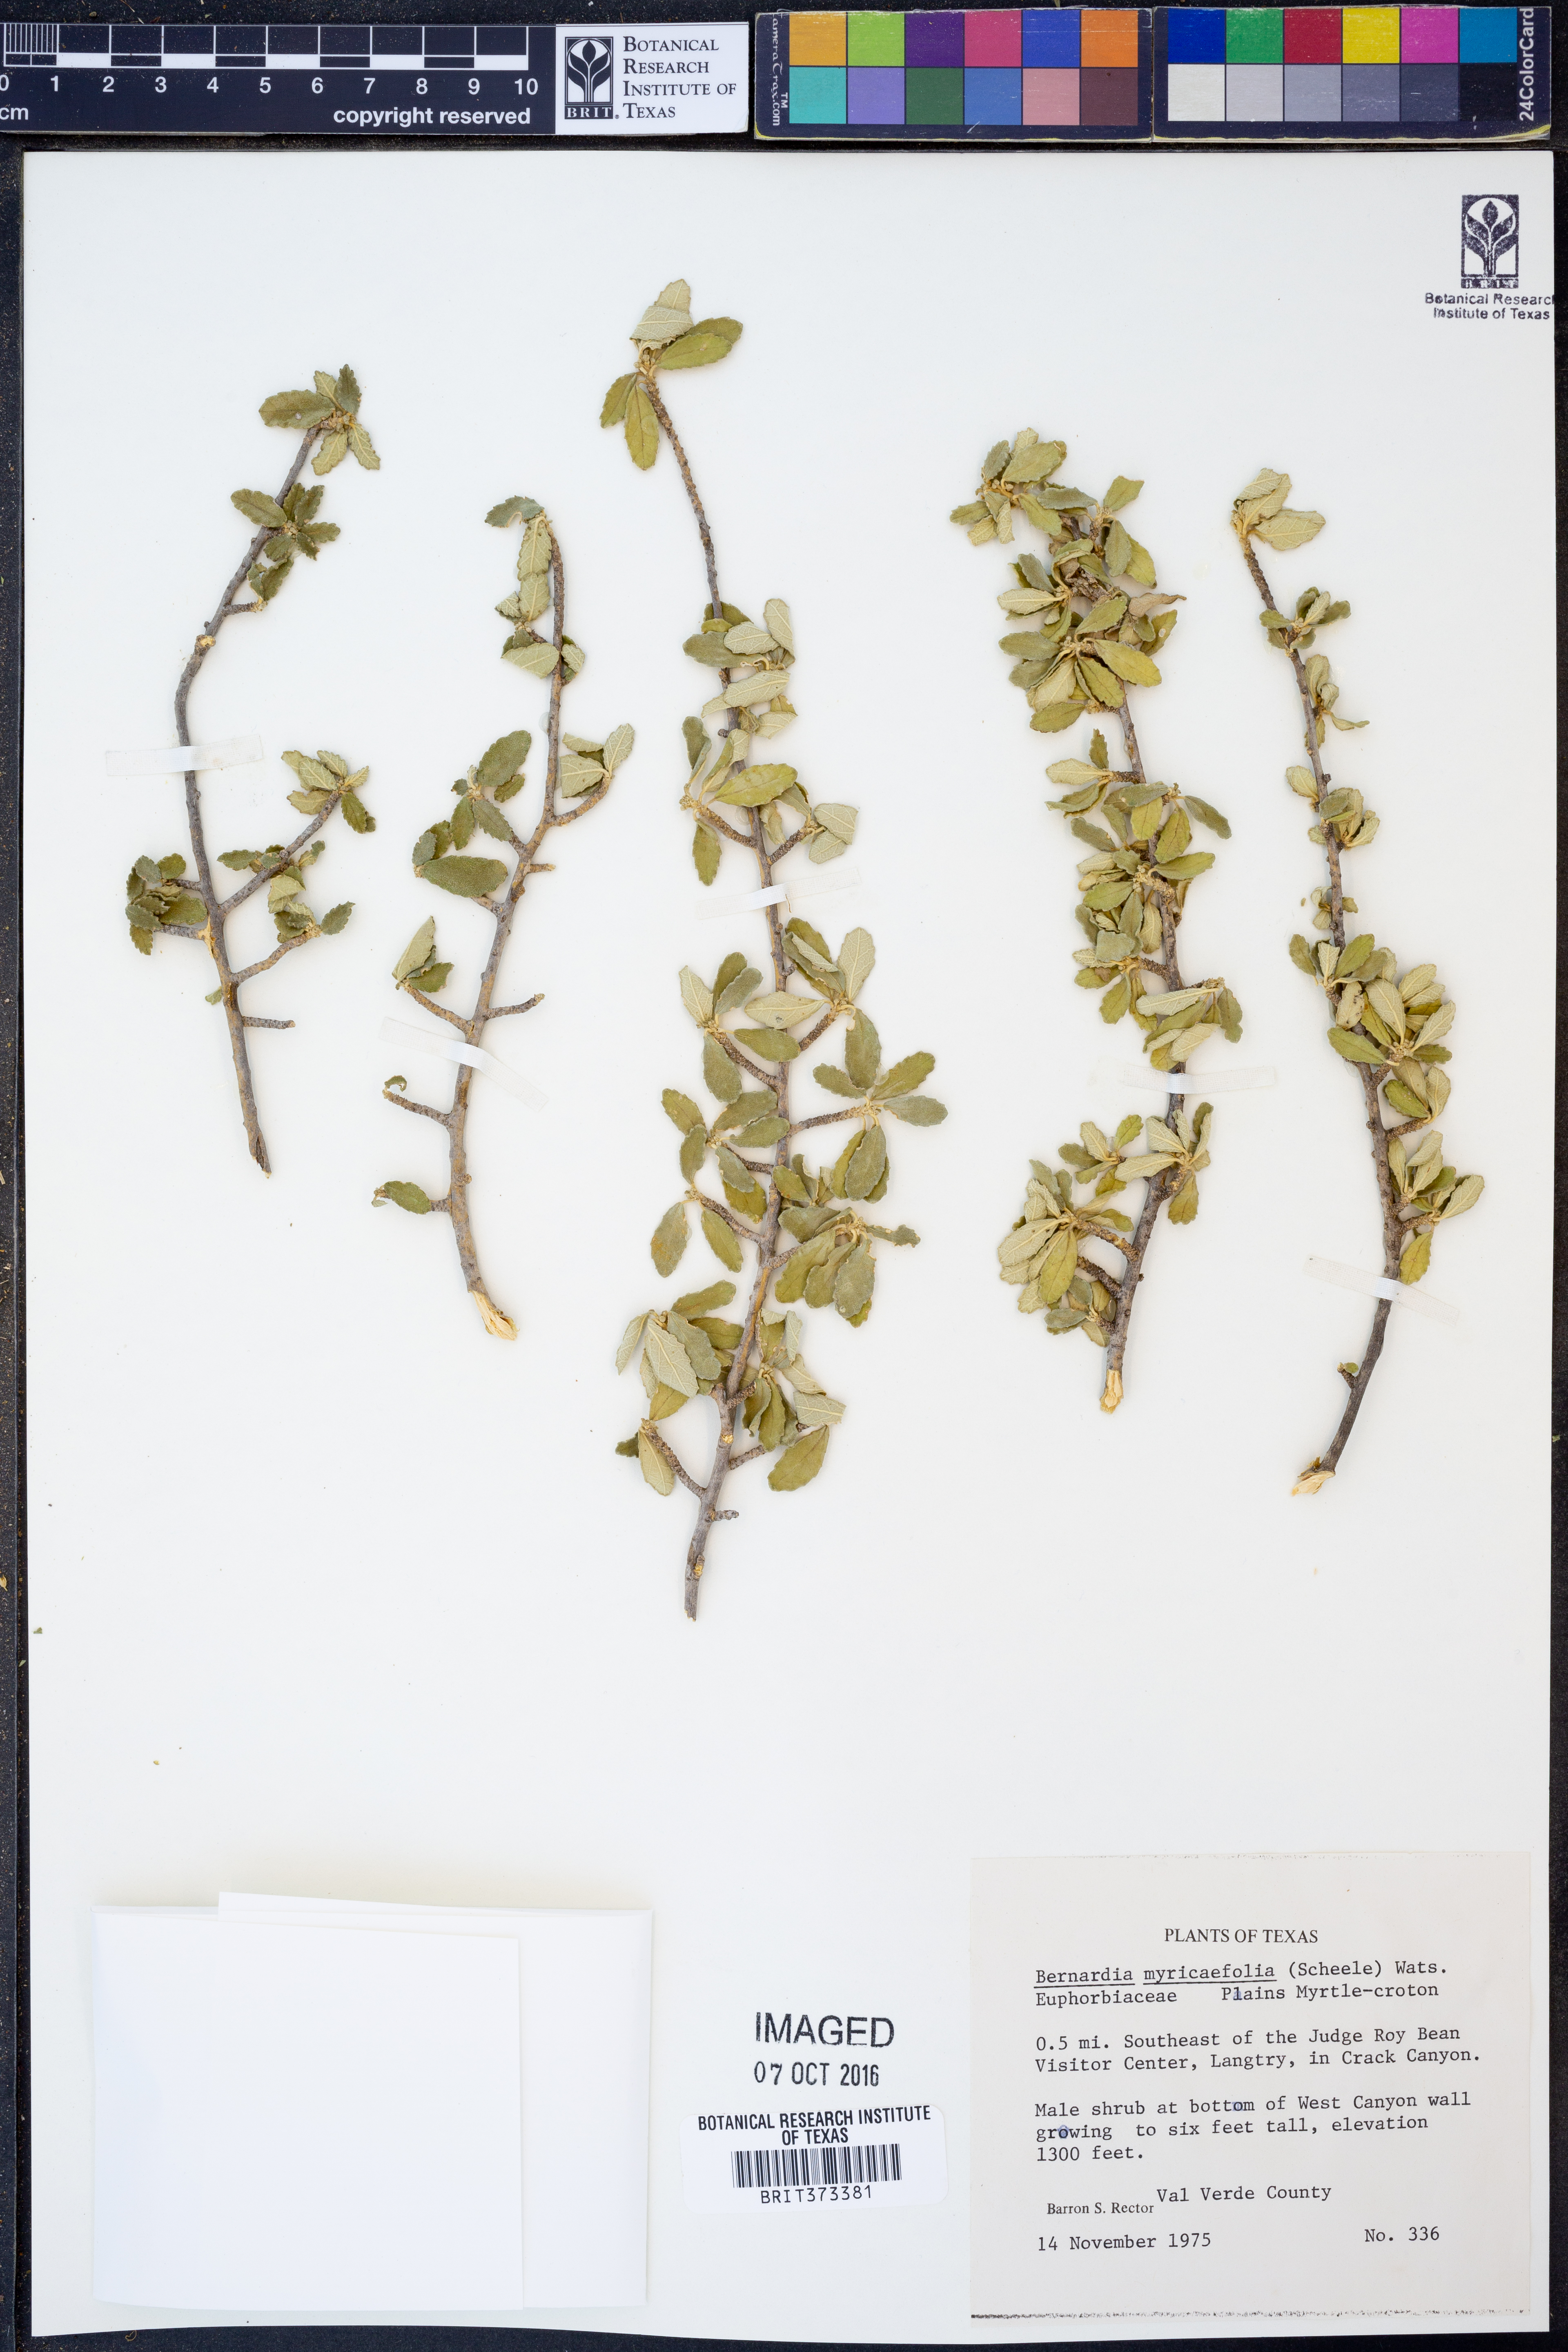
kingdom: Plantae
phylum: Tracheophyta
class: Magnoliopsida
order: Malpighiales
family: Euphorbiaceae
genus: Bernardia
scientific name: Bernardia myricifolia
